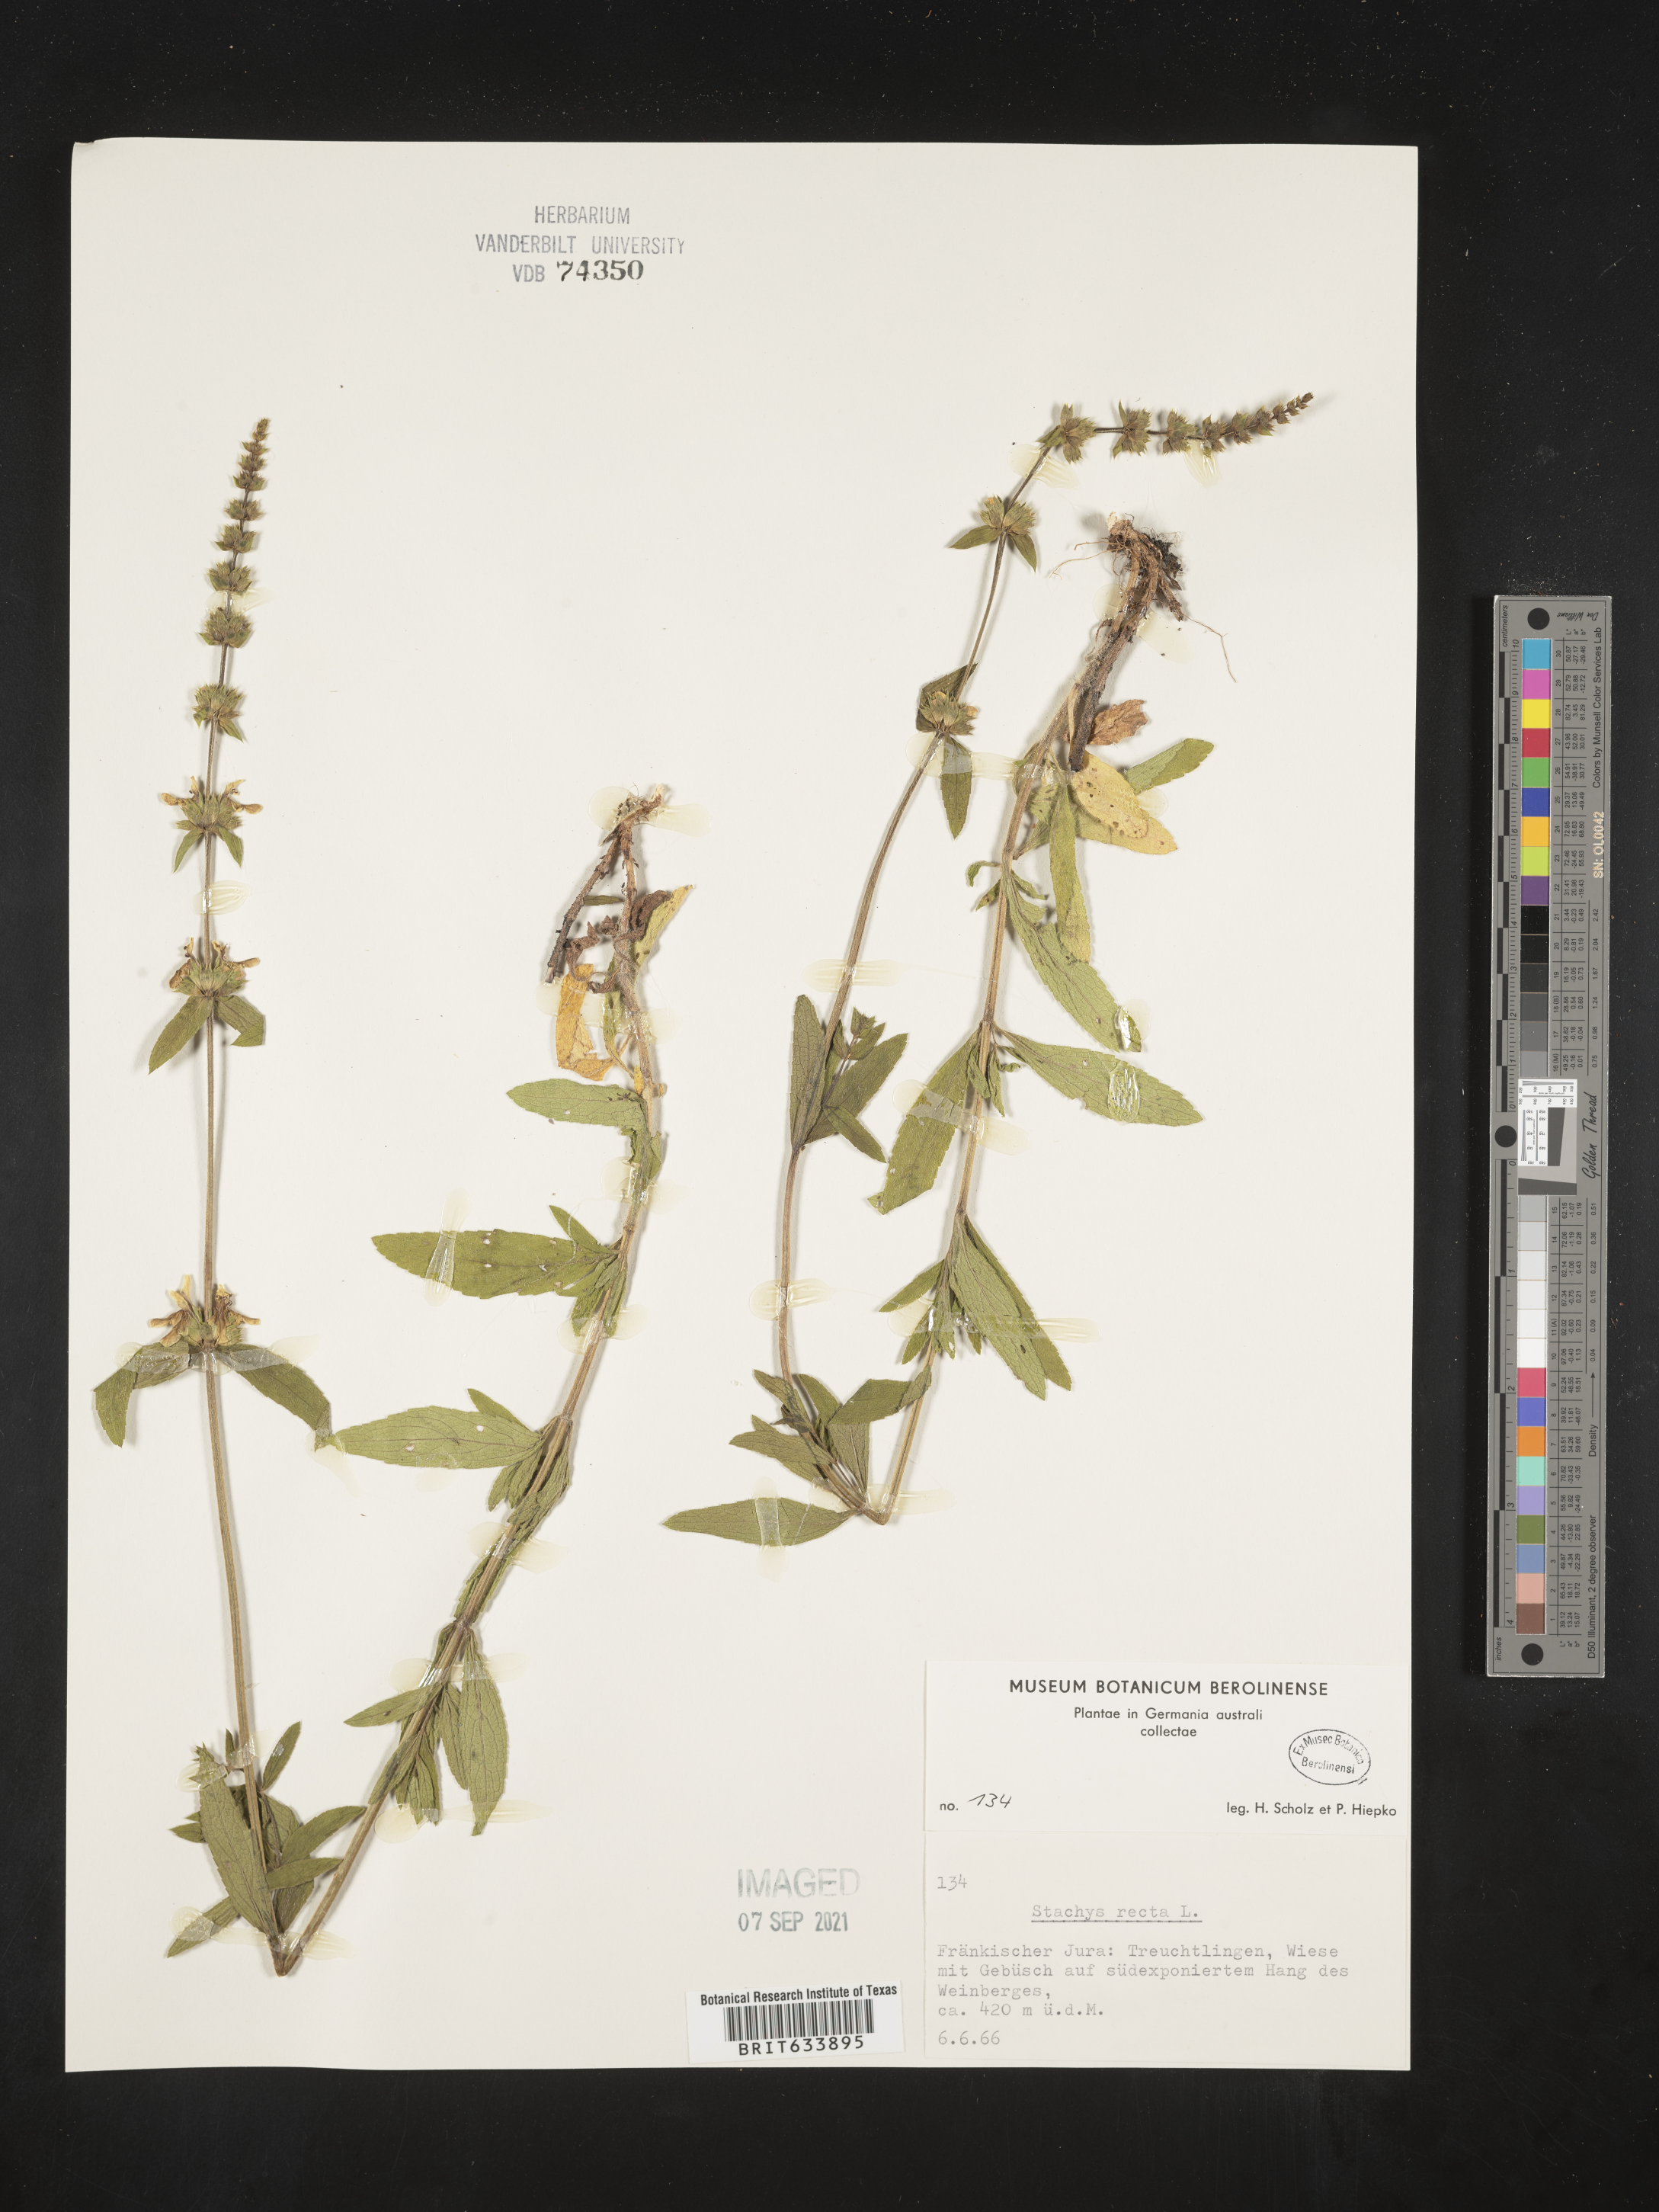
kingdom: Plantae
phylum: Tracheophyta
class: Magnoliopsida
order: Lamiales
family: Lamiaceae
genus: Stachys
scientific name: Stachys
